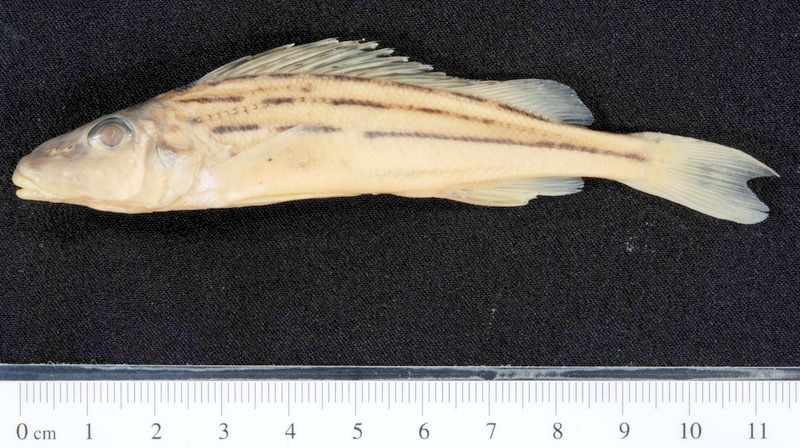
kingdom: Animalia
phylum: Chordata
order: Perciformes
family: Percidae
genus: Gymnocephalus
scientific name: Gymnocephalus schraetser
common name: Schraetzer
